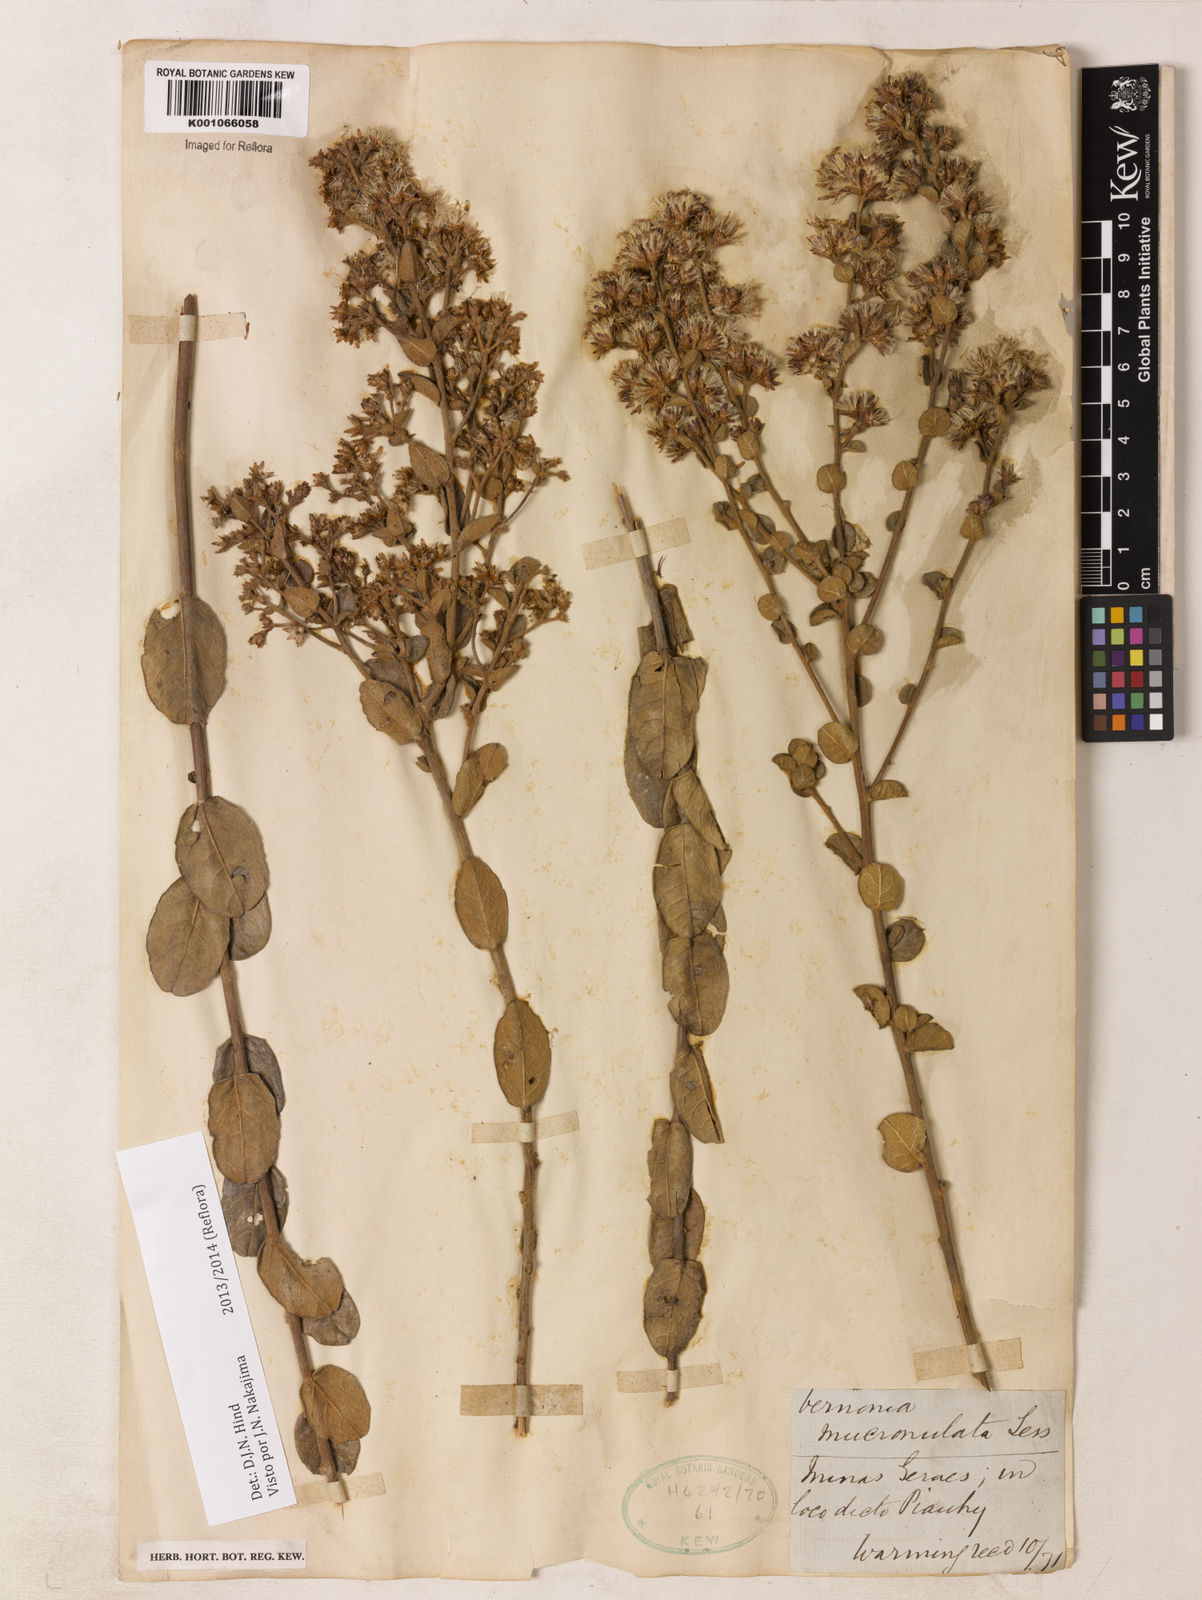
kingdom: Plantae
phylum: Tracheophyta
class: Magnoliopsida
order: Asterales
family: Asteraceae
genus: Vernonanthura
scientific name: Vernonanthura mucronulata
